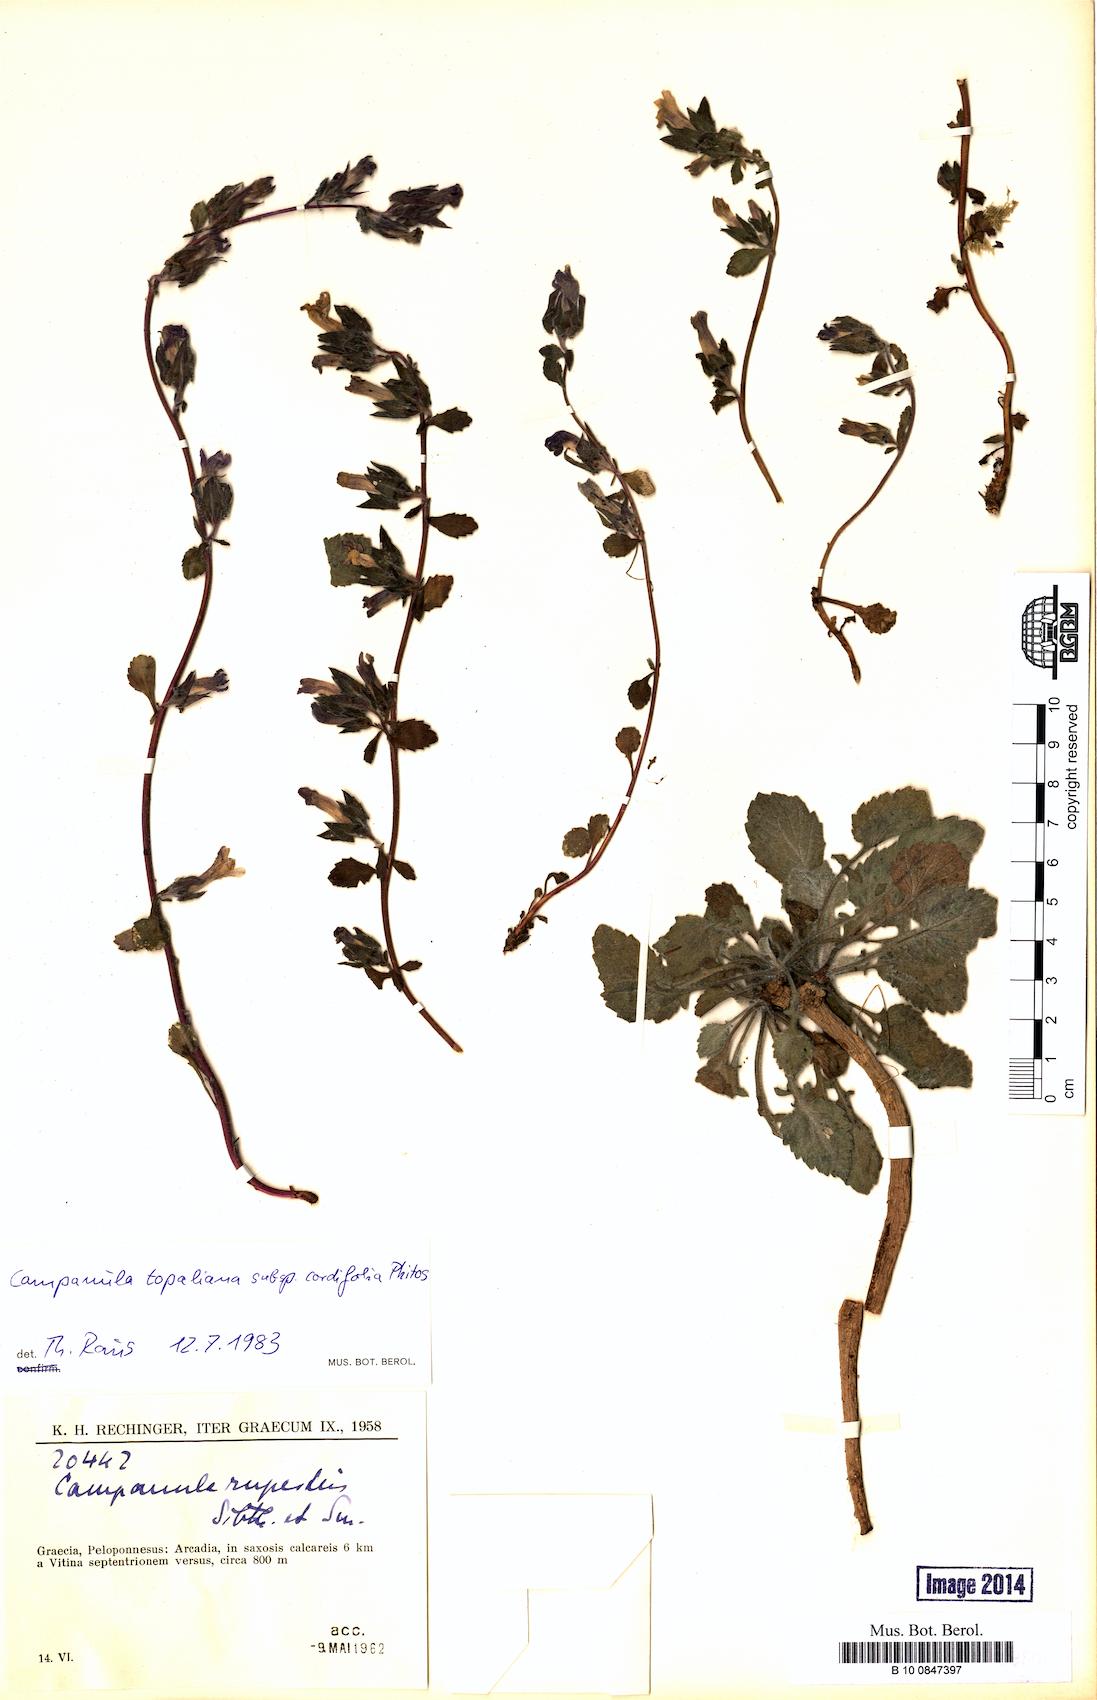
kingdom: Plantae
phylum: Tracheophyta
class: Magnoliopsida
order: Asterales
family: Campanulaceae
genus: Campanula
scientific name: Campanula topaliana
